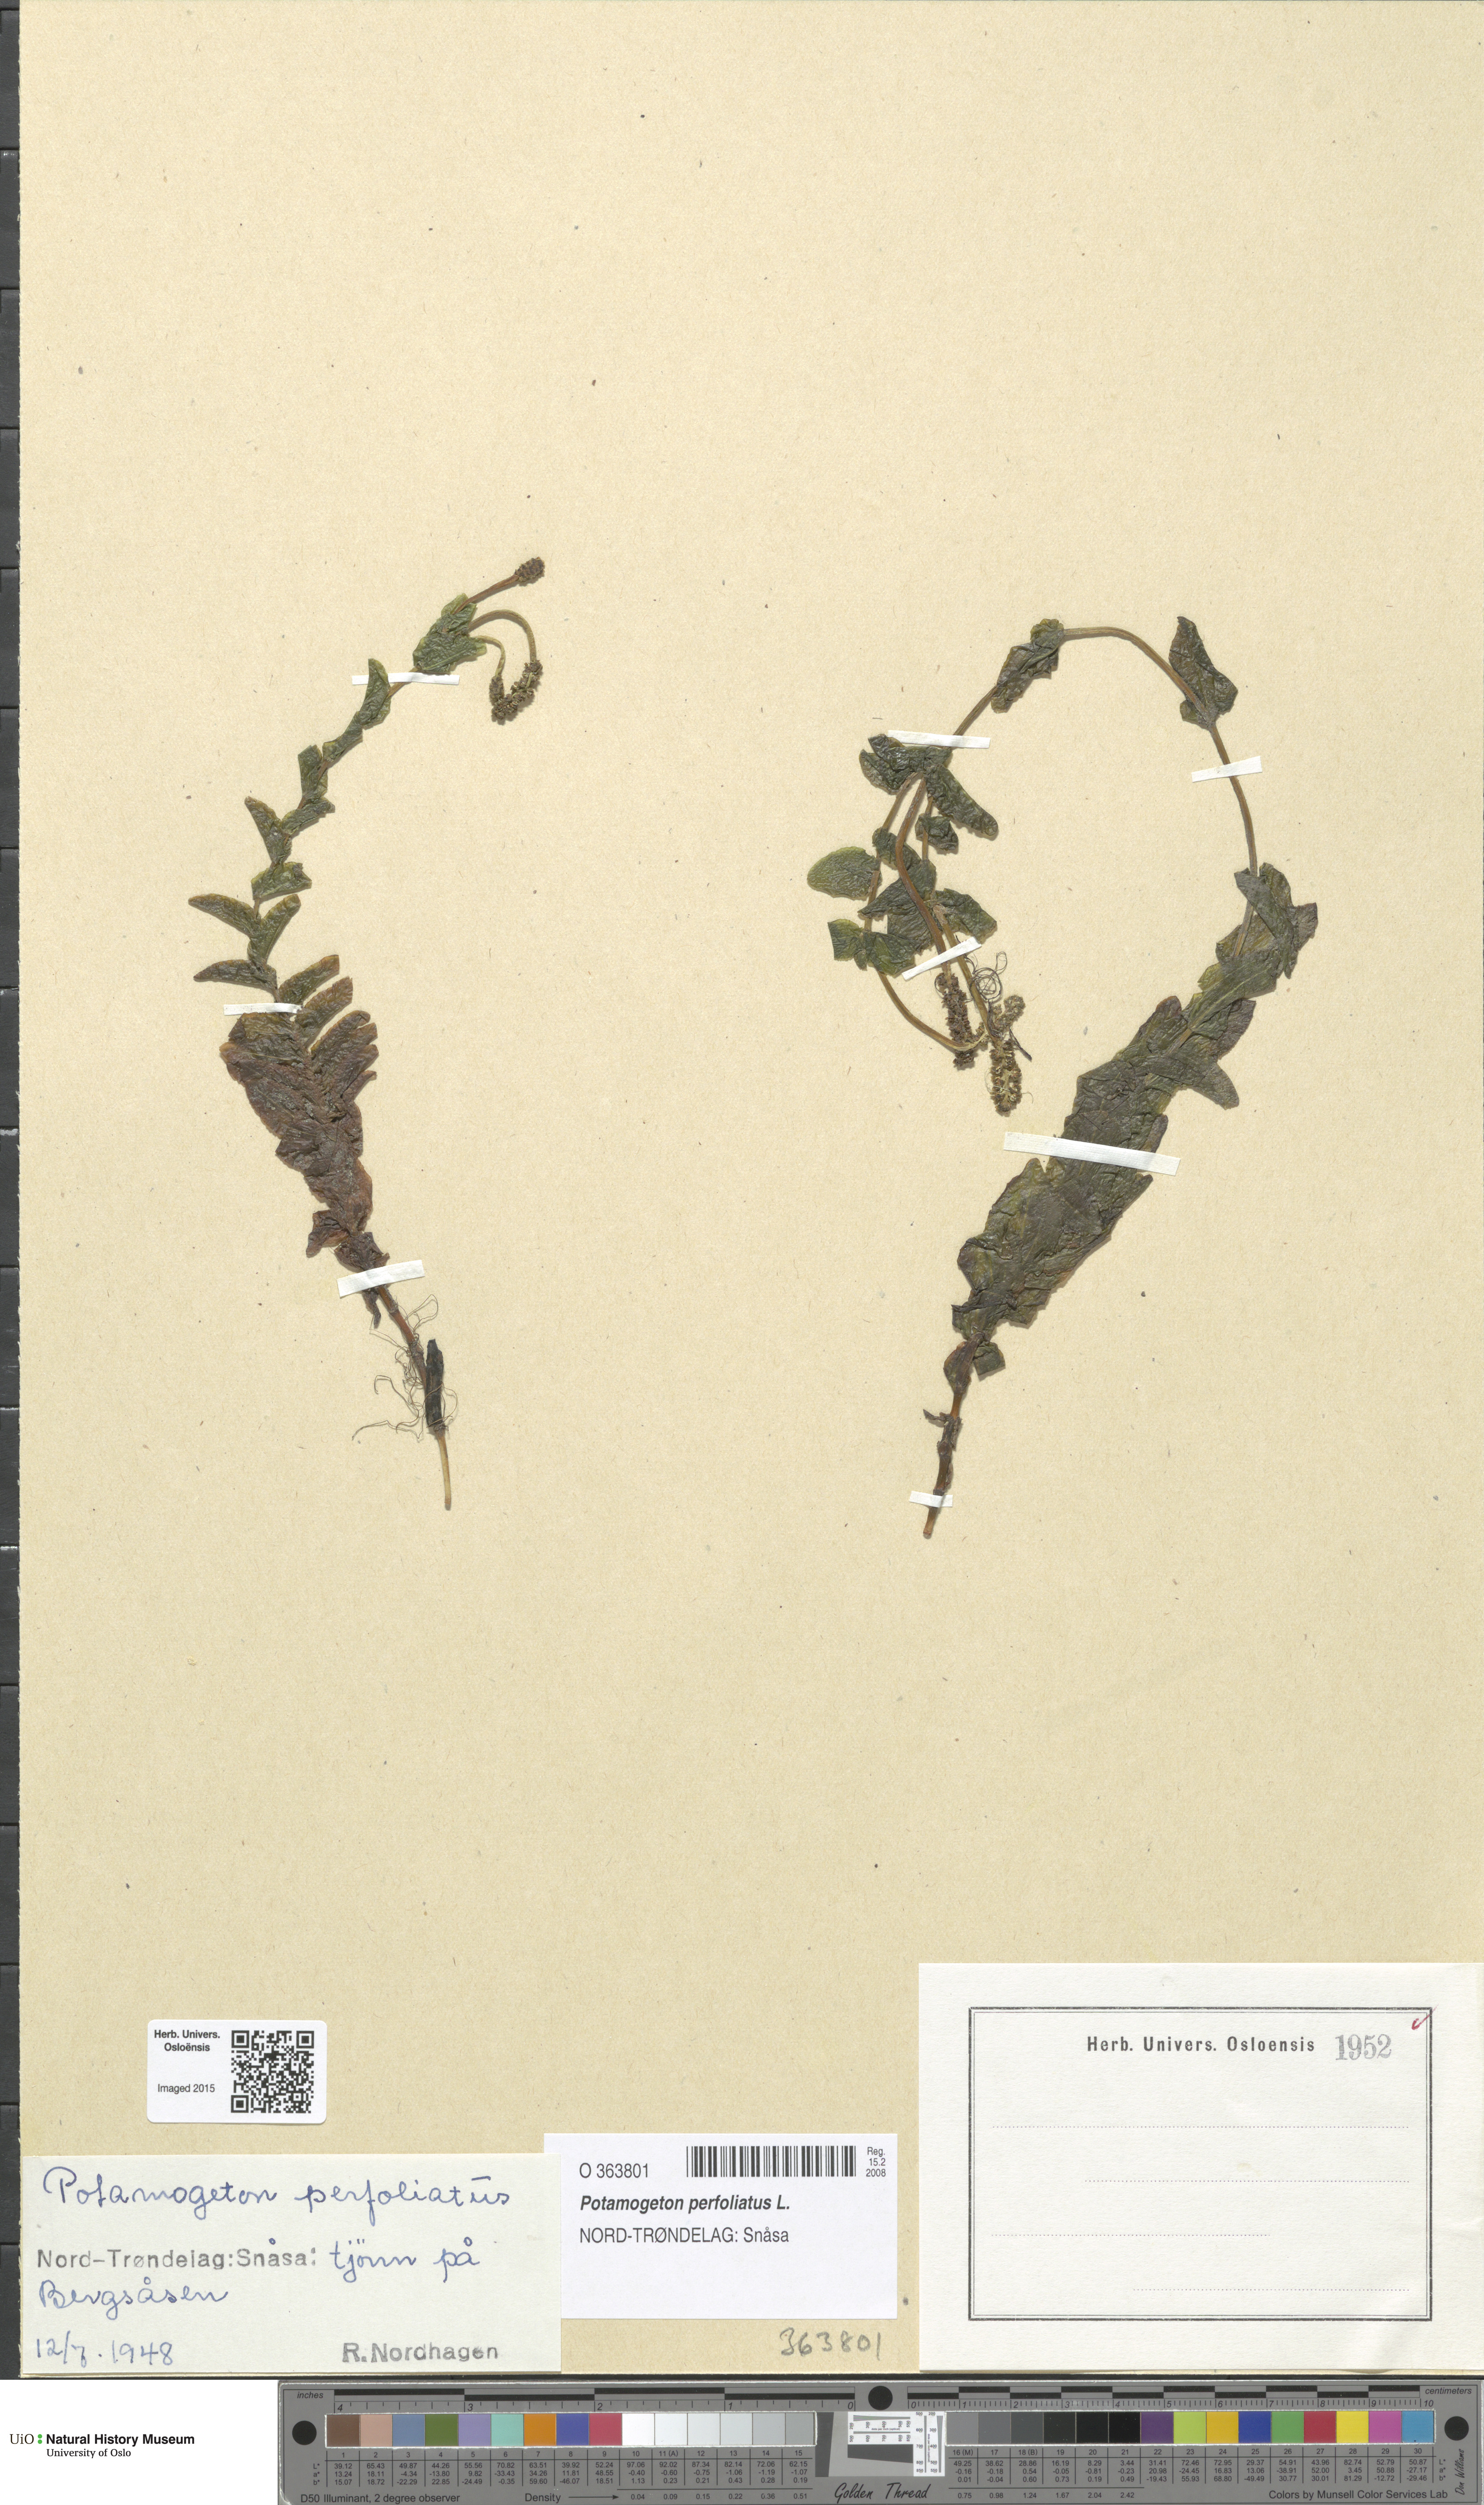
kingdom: Plantae
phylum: Tracheophyta
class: Liliopsida
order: Alismatales
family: Potamogetonaceae
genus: Potamogeton
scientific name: Potamogeton perfoliatus
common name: Perfoliate pondweed
